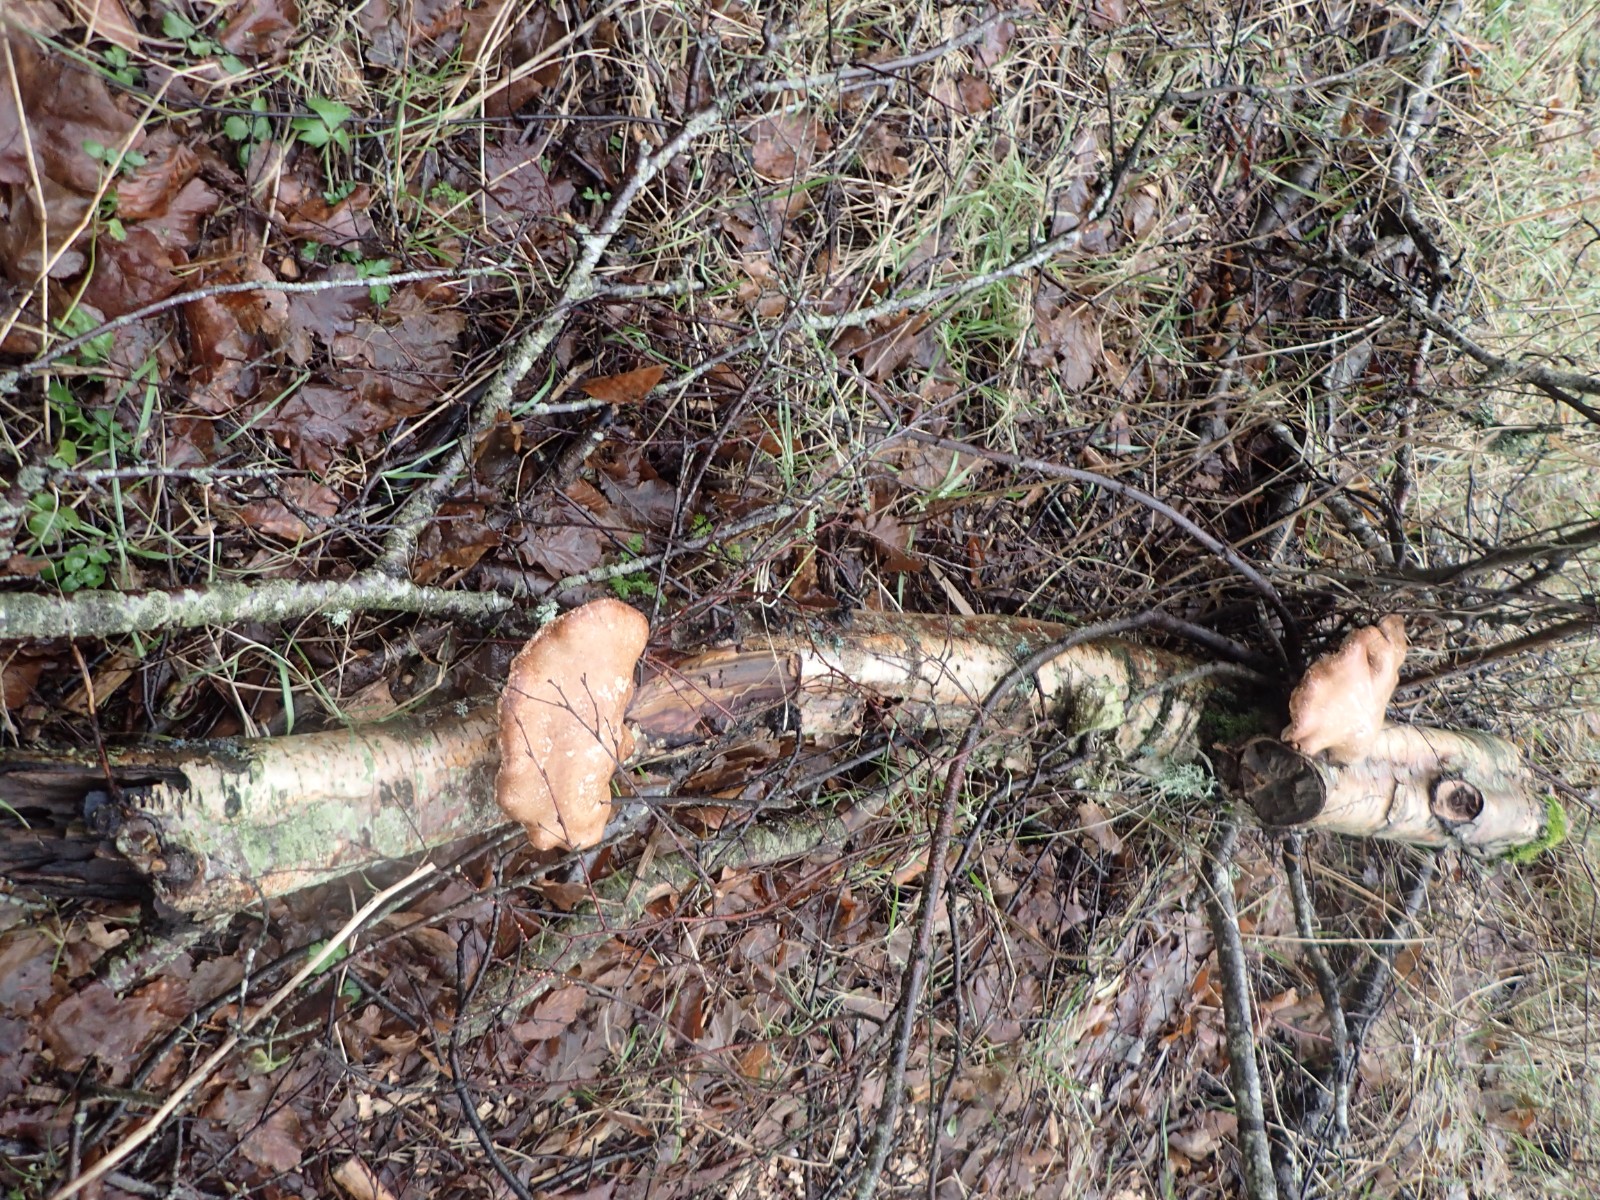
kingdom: Fungi
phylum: Basidiomycota
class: Agaricomycetes
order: Polyporales
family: Fomitopsidaceae
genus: Fomitopsis
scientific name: Fomitopsis betulina
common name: birkeporesvamp
